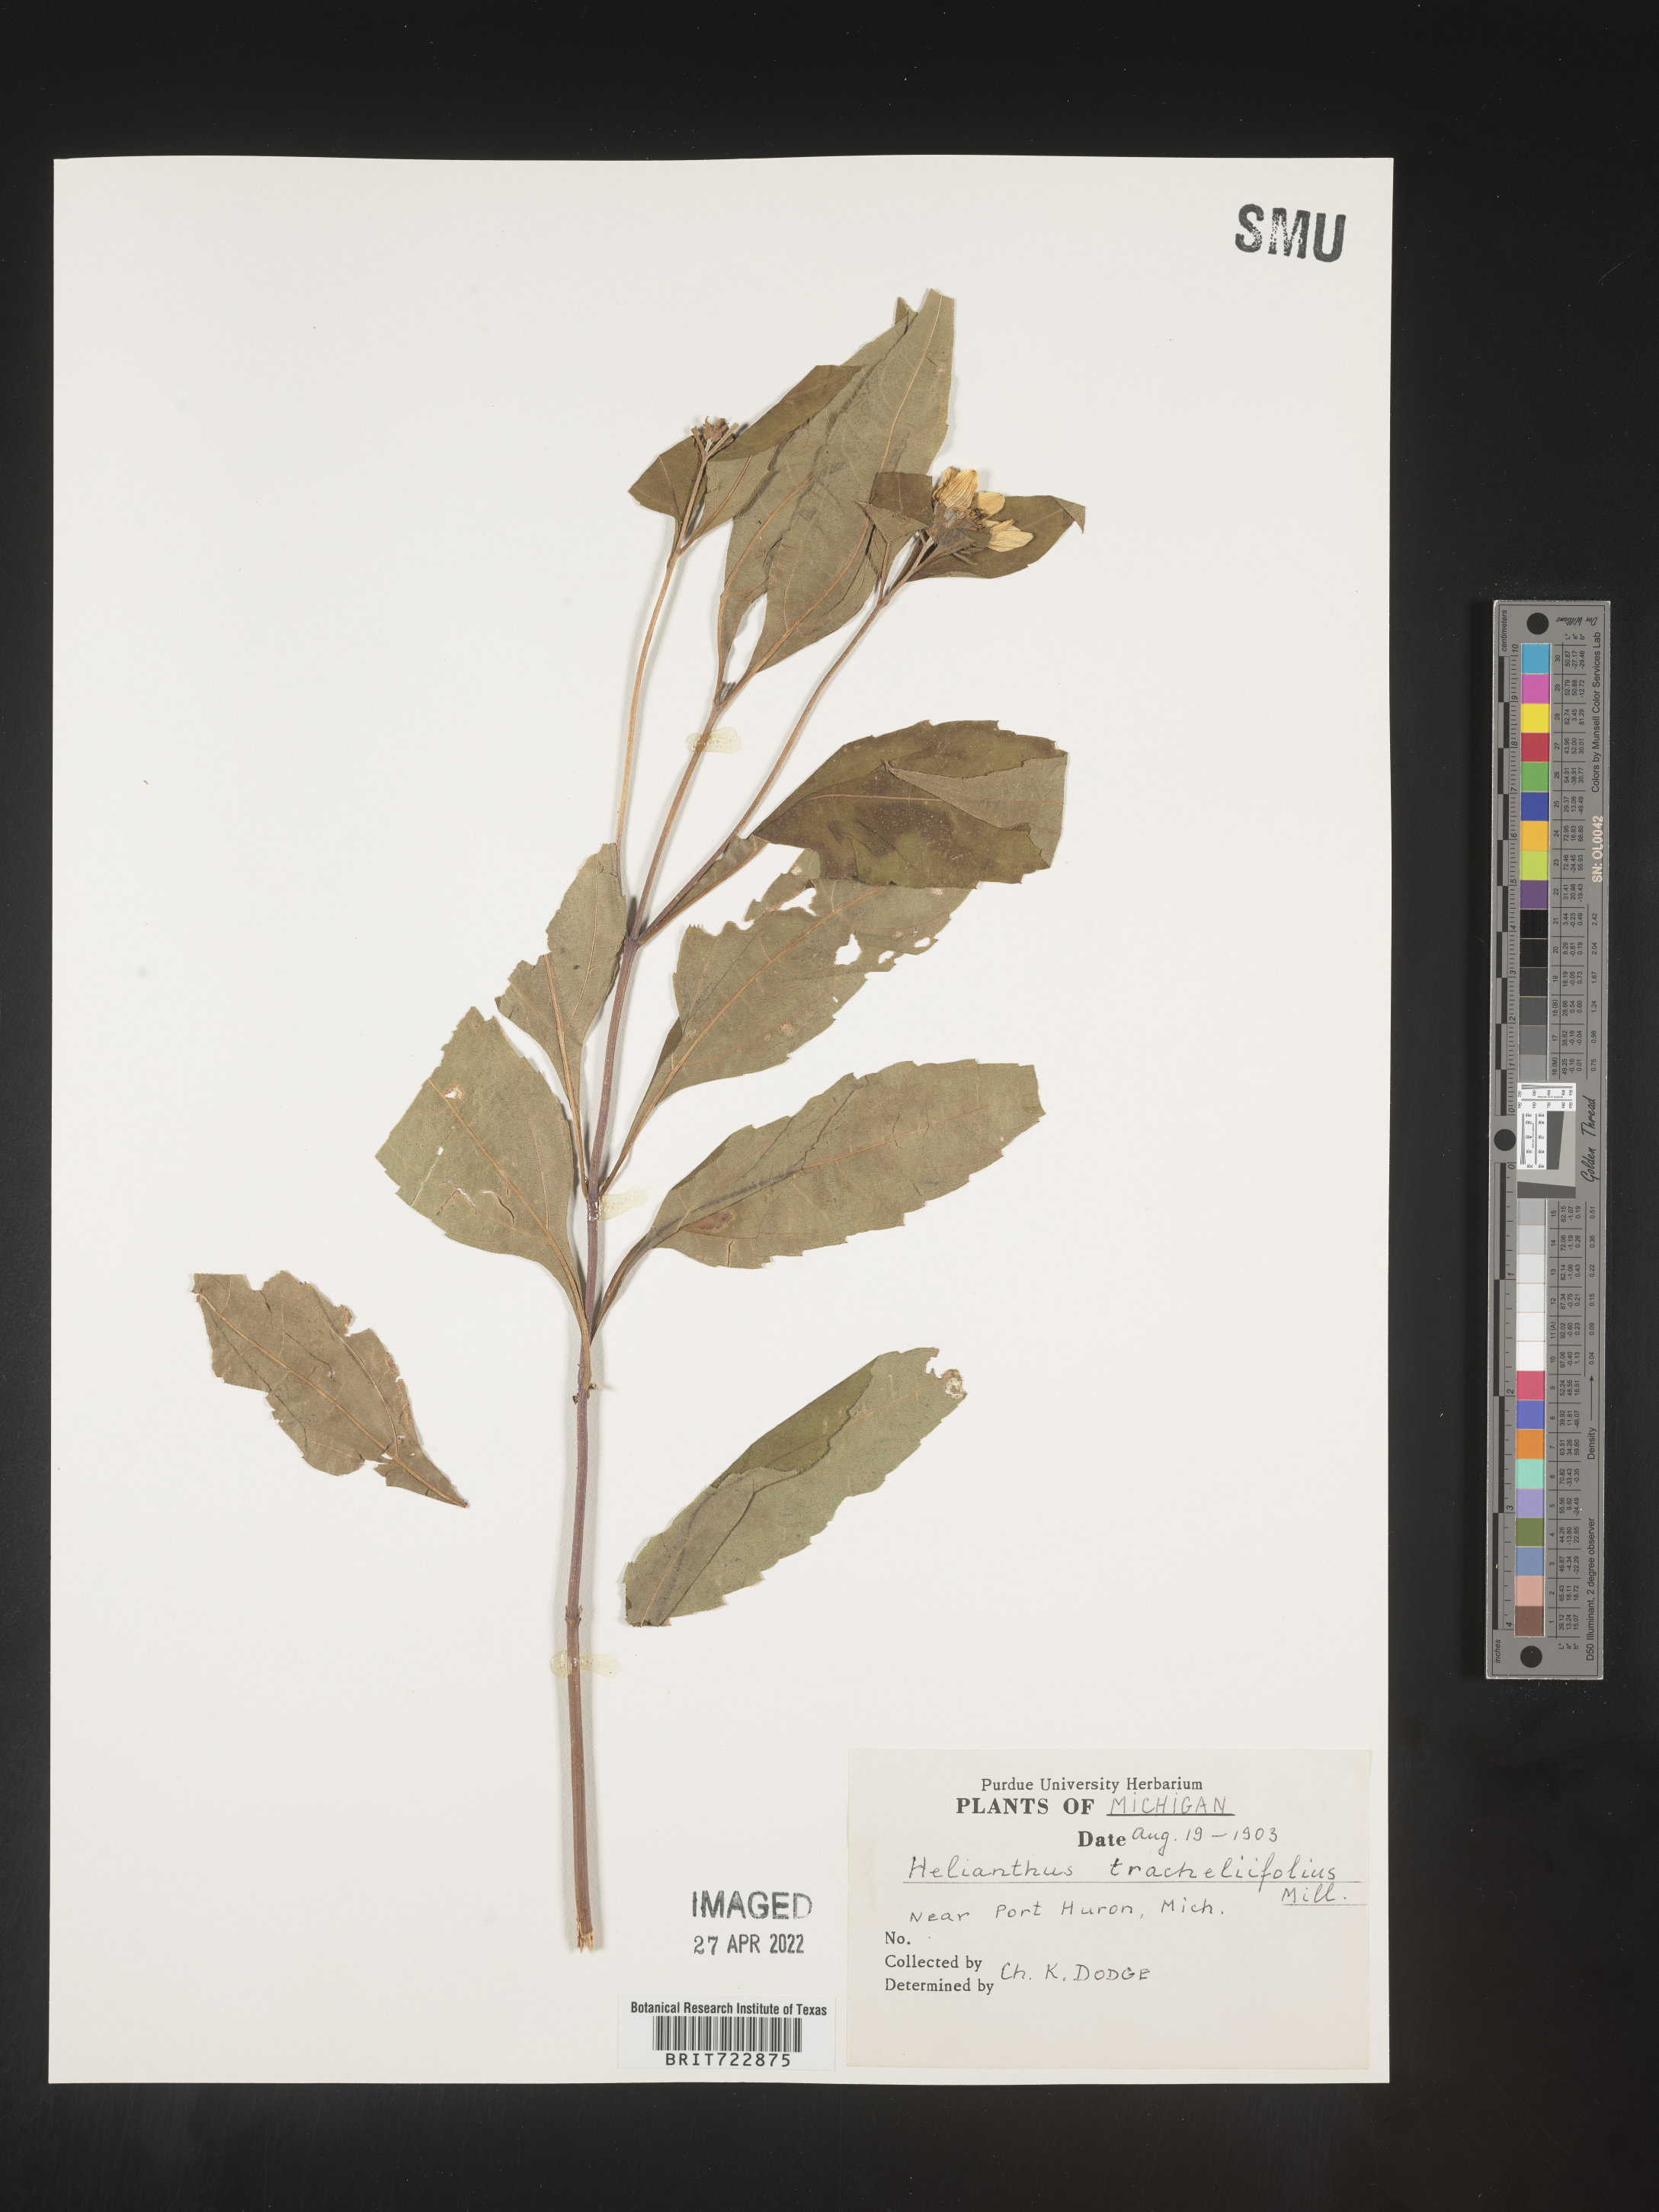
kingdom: Plantae
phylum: Tracheophyta
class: Magnoliopsida
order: Asterales
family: Asteraceae
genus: Helianthus
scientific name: Helianthus decapetalus
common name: Thin-leaved sunflower
